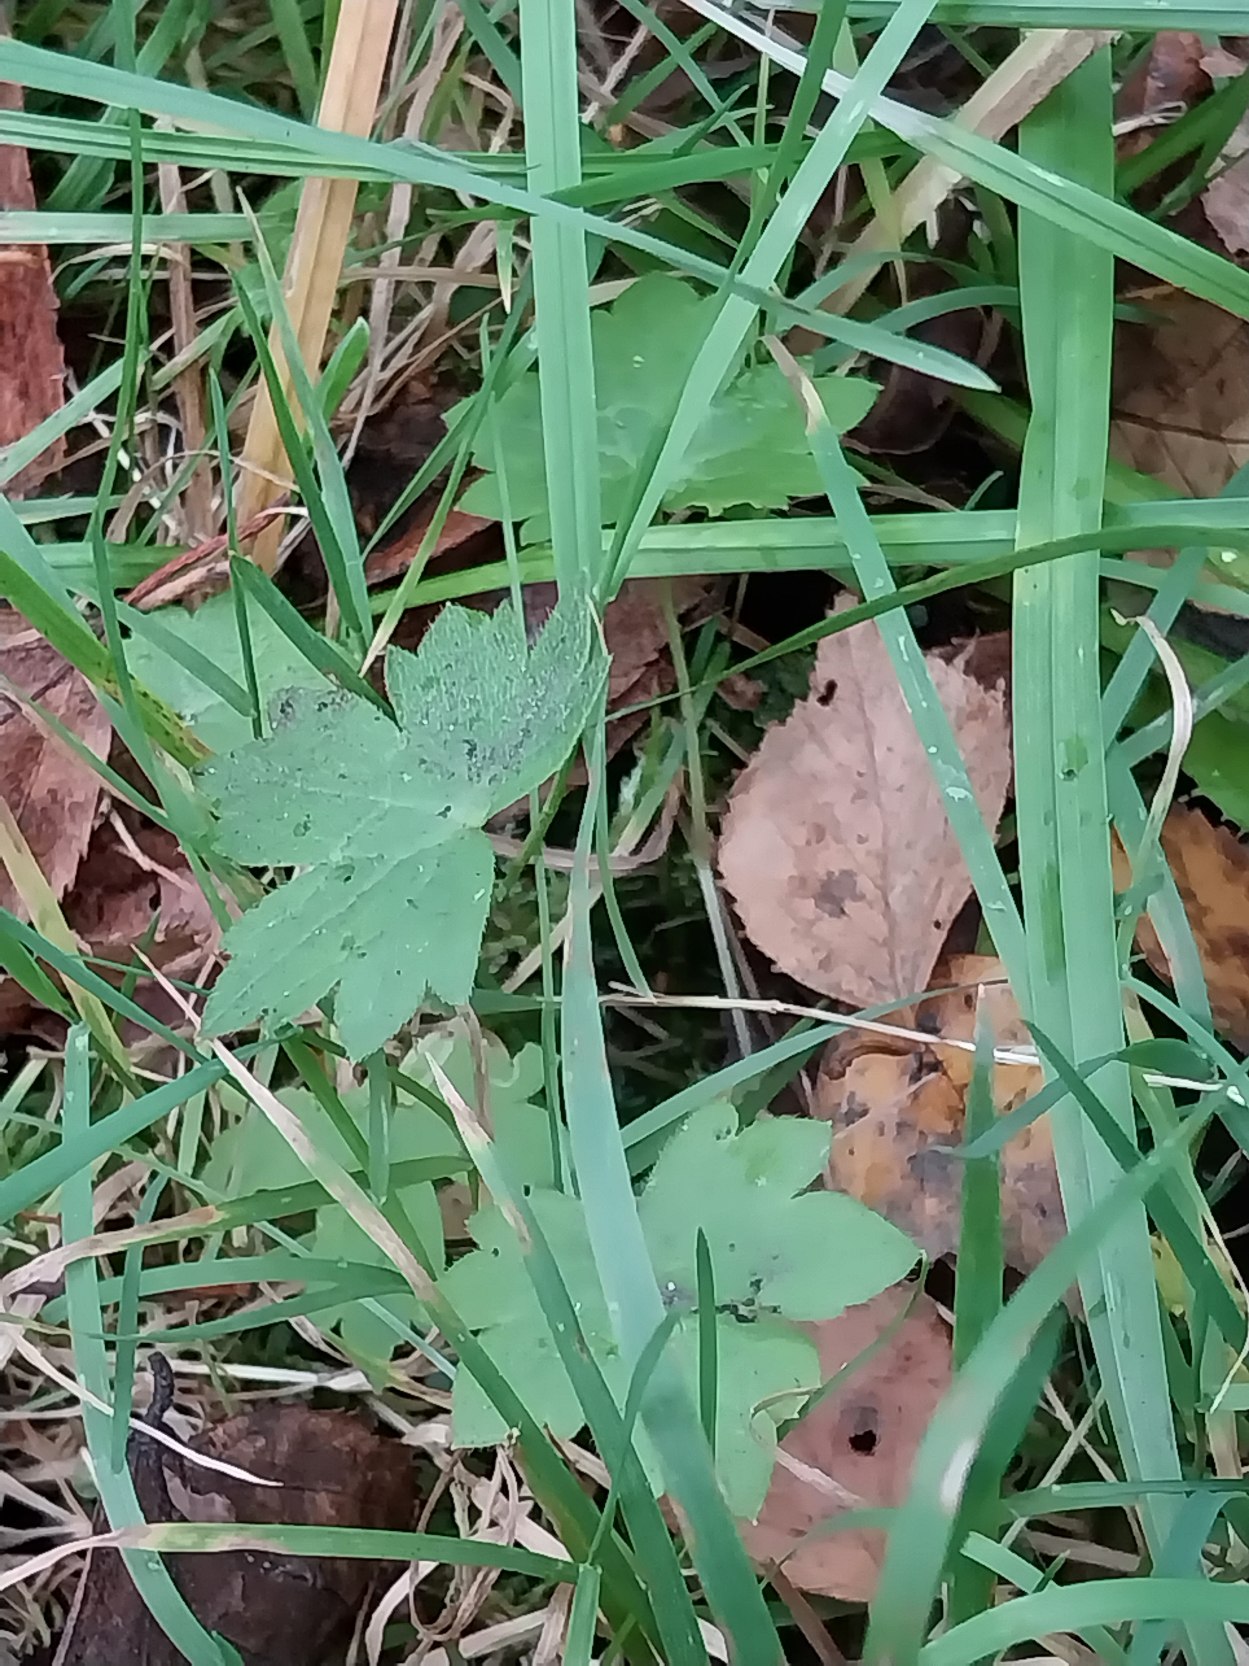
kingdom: Plantae
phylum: Tracheophyta
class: Magnoliopsida
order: Ranunculales
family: Ranunculaceae
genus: Ranunculus
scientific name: Ranunculus acris
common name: Bidende ranunkel
